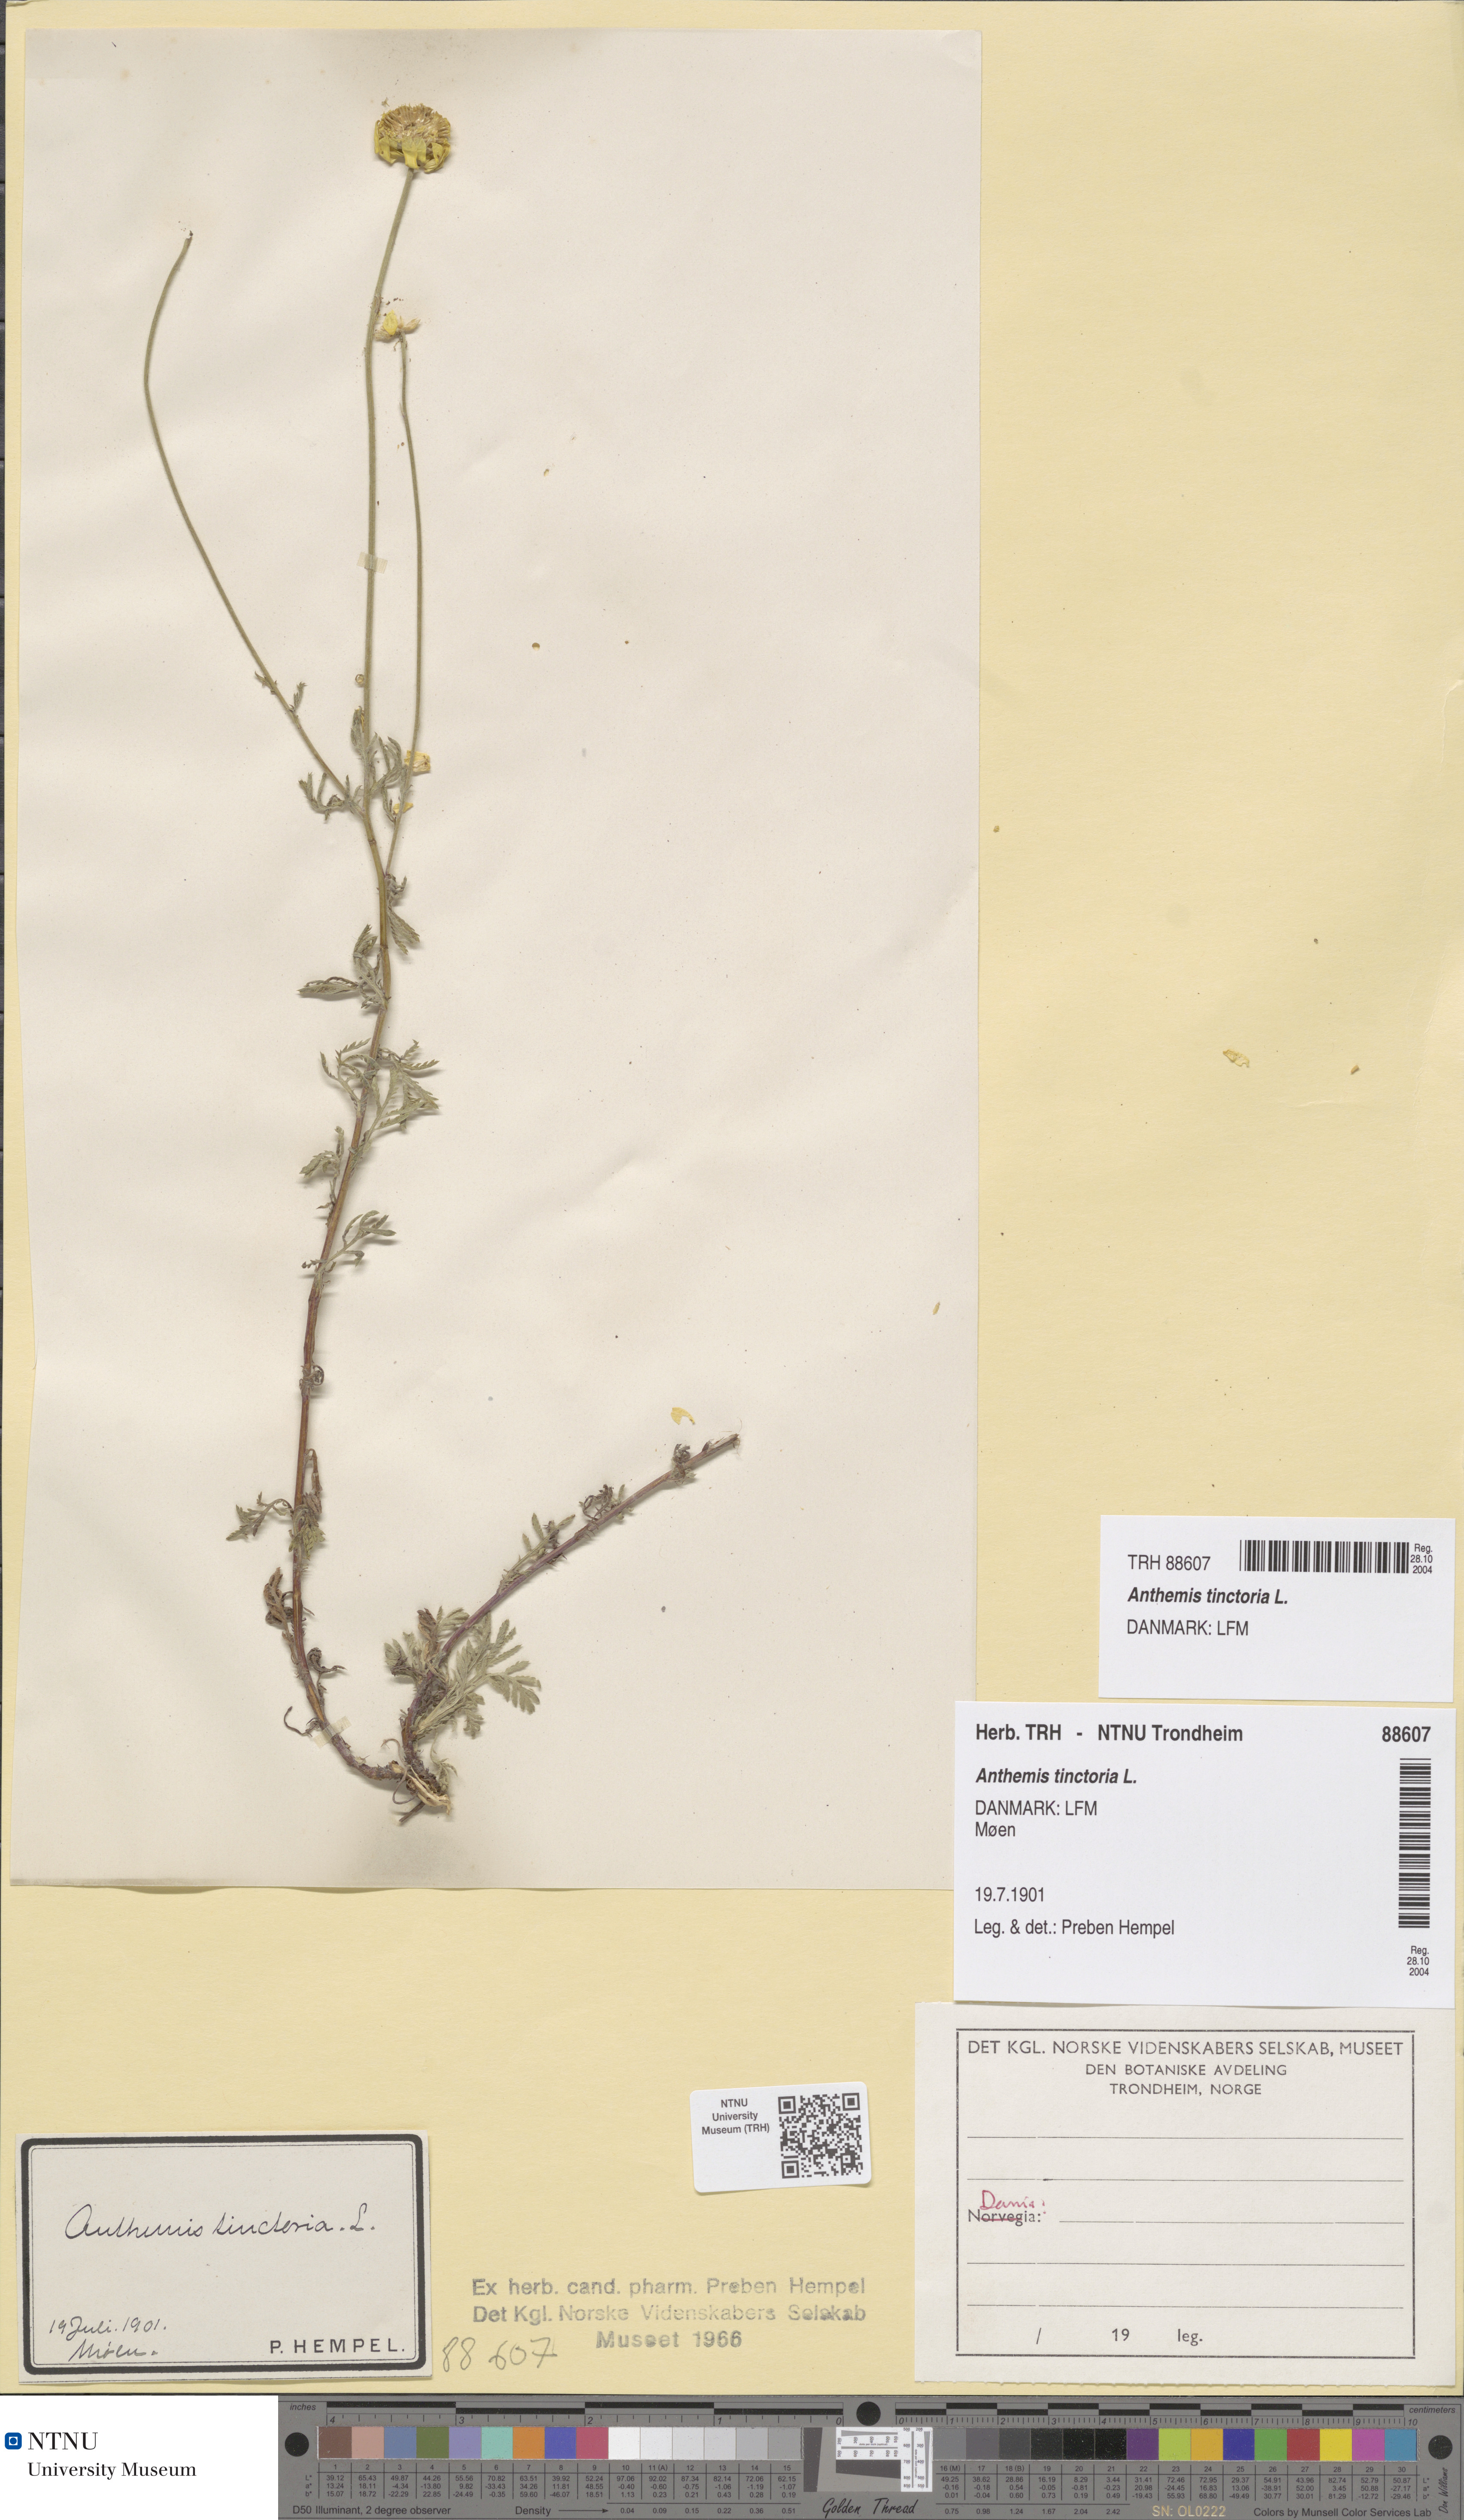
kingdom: Plantae
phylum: Tracheophyta
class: Magnoliopsida
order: Asterales
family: Asteraceae
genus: Cota
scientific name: Cota tinctoria
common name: Golden chamomile
